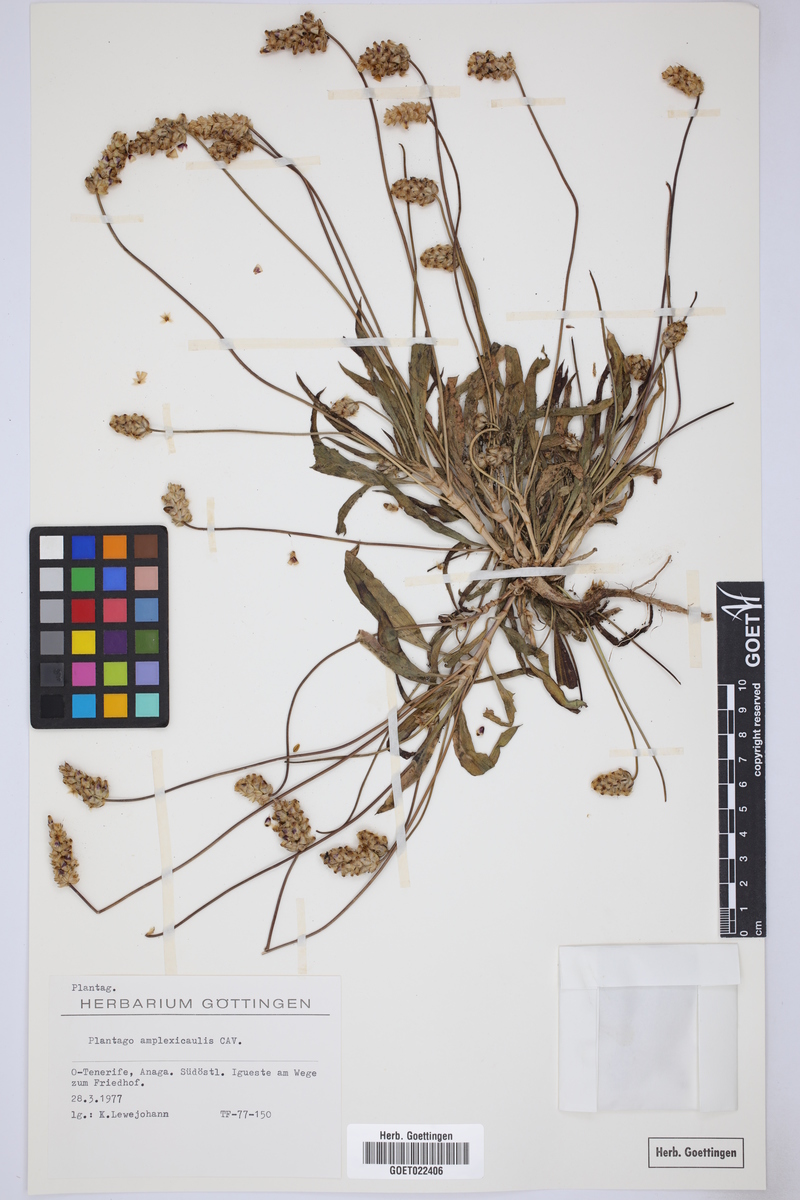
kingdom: Plantae
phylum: Tracheophyta
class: Magnoliopsida
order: Lamiales
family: Plantaginaceae
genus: Plantago
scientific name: Plantago amplexicaulis
